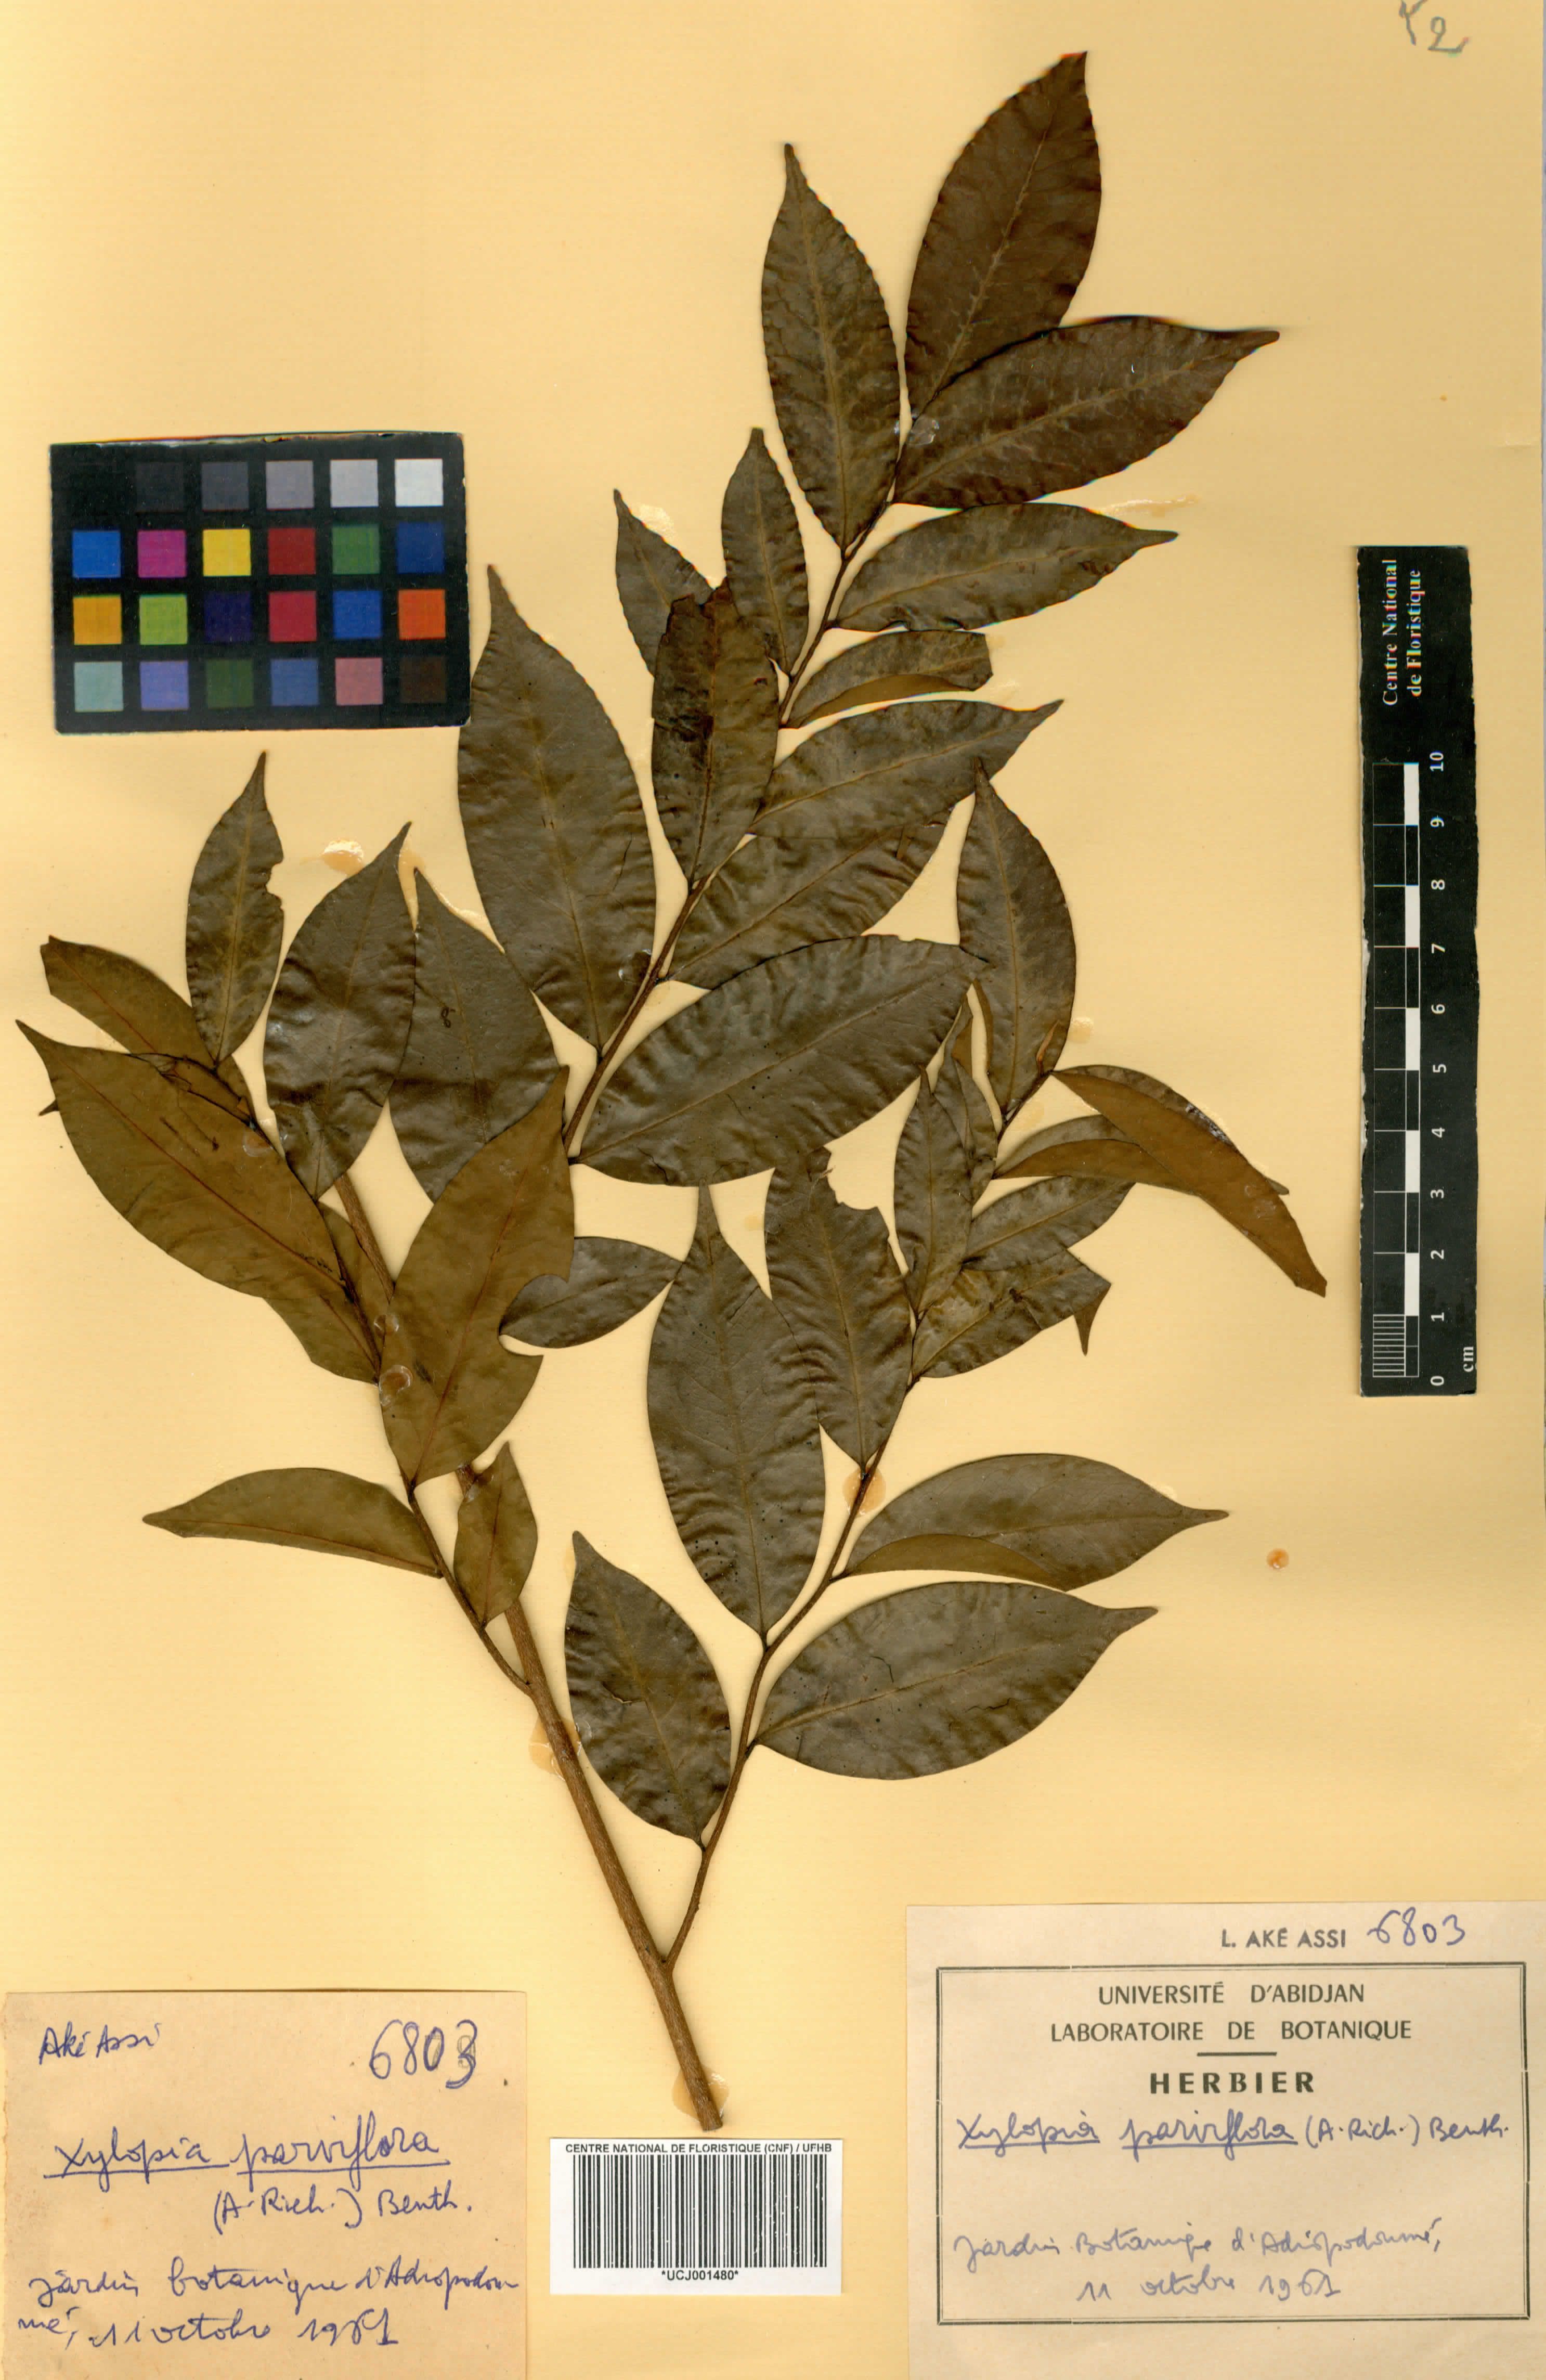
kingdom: Plantae
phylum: Tracheophyta
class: Magnoliopsida
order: Magnoliales
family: Annonaceae
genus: Xylopia
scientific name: Xylopia parviflora
